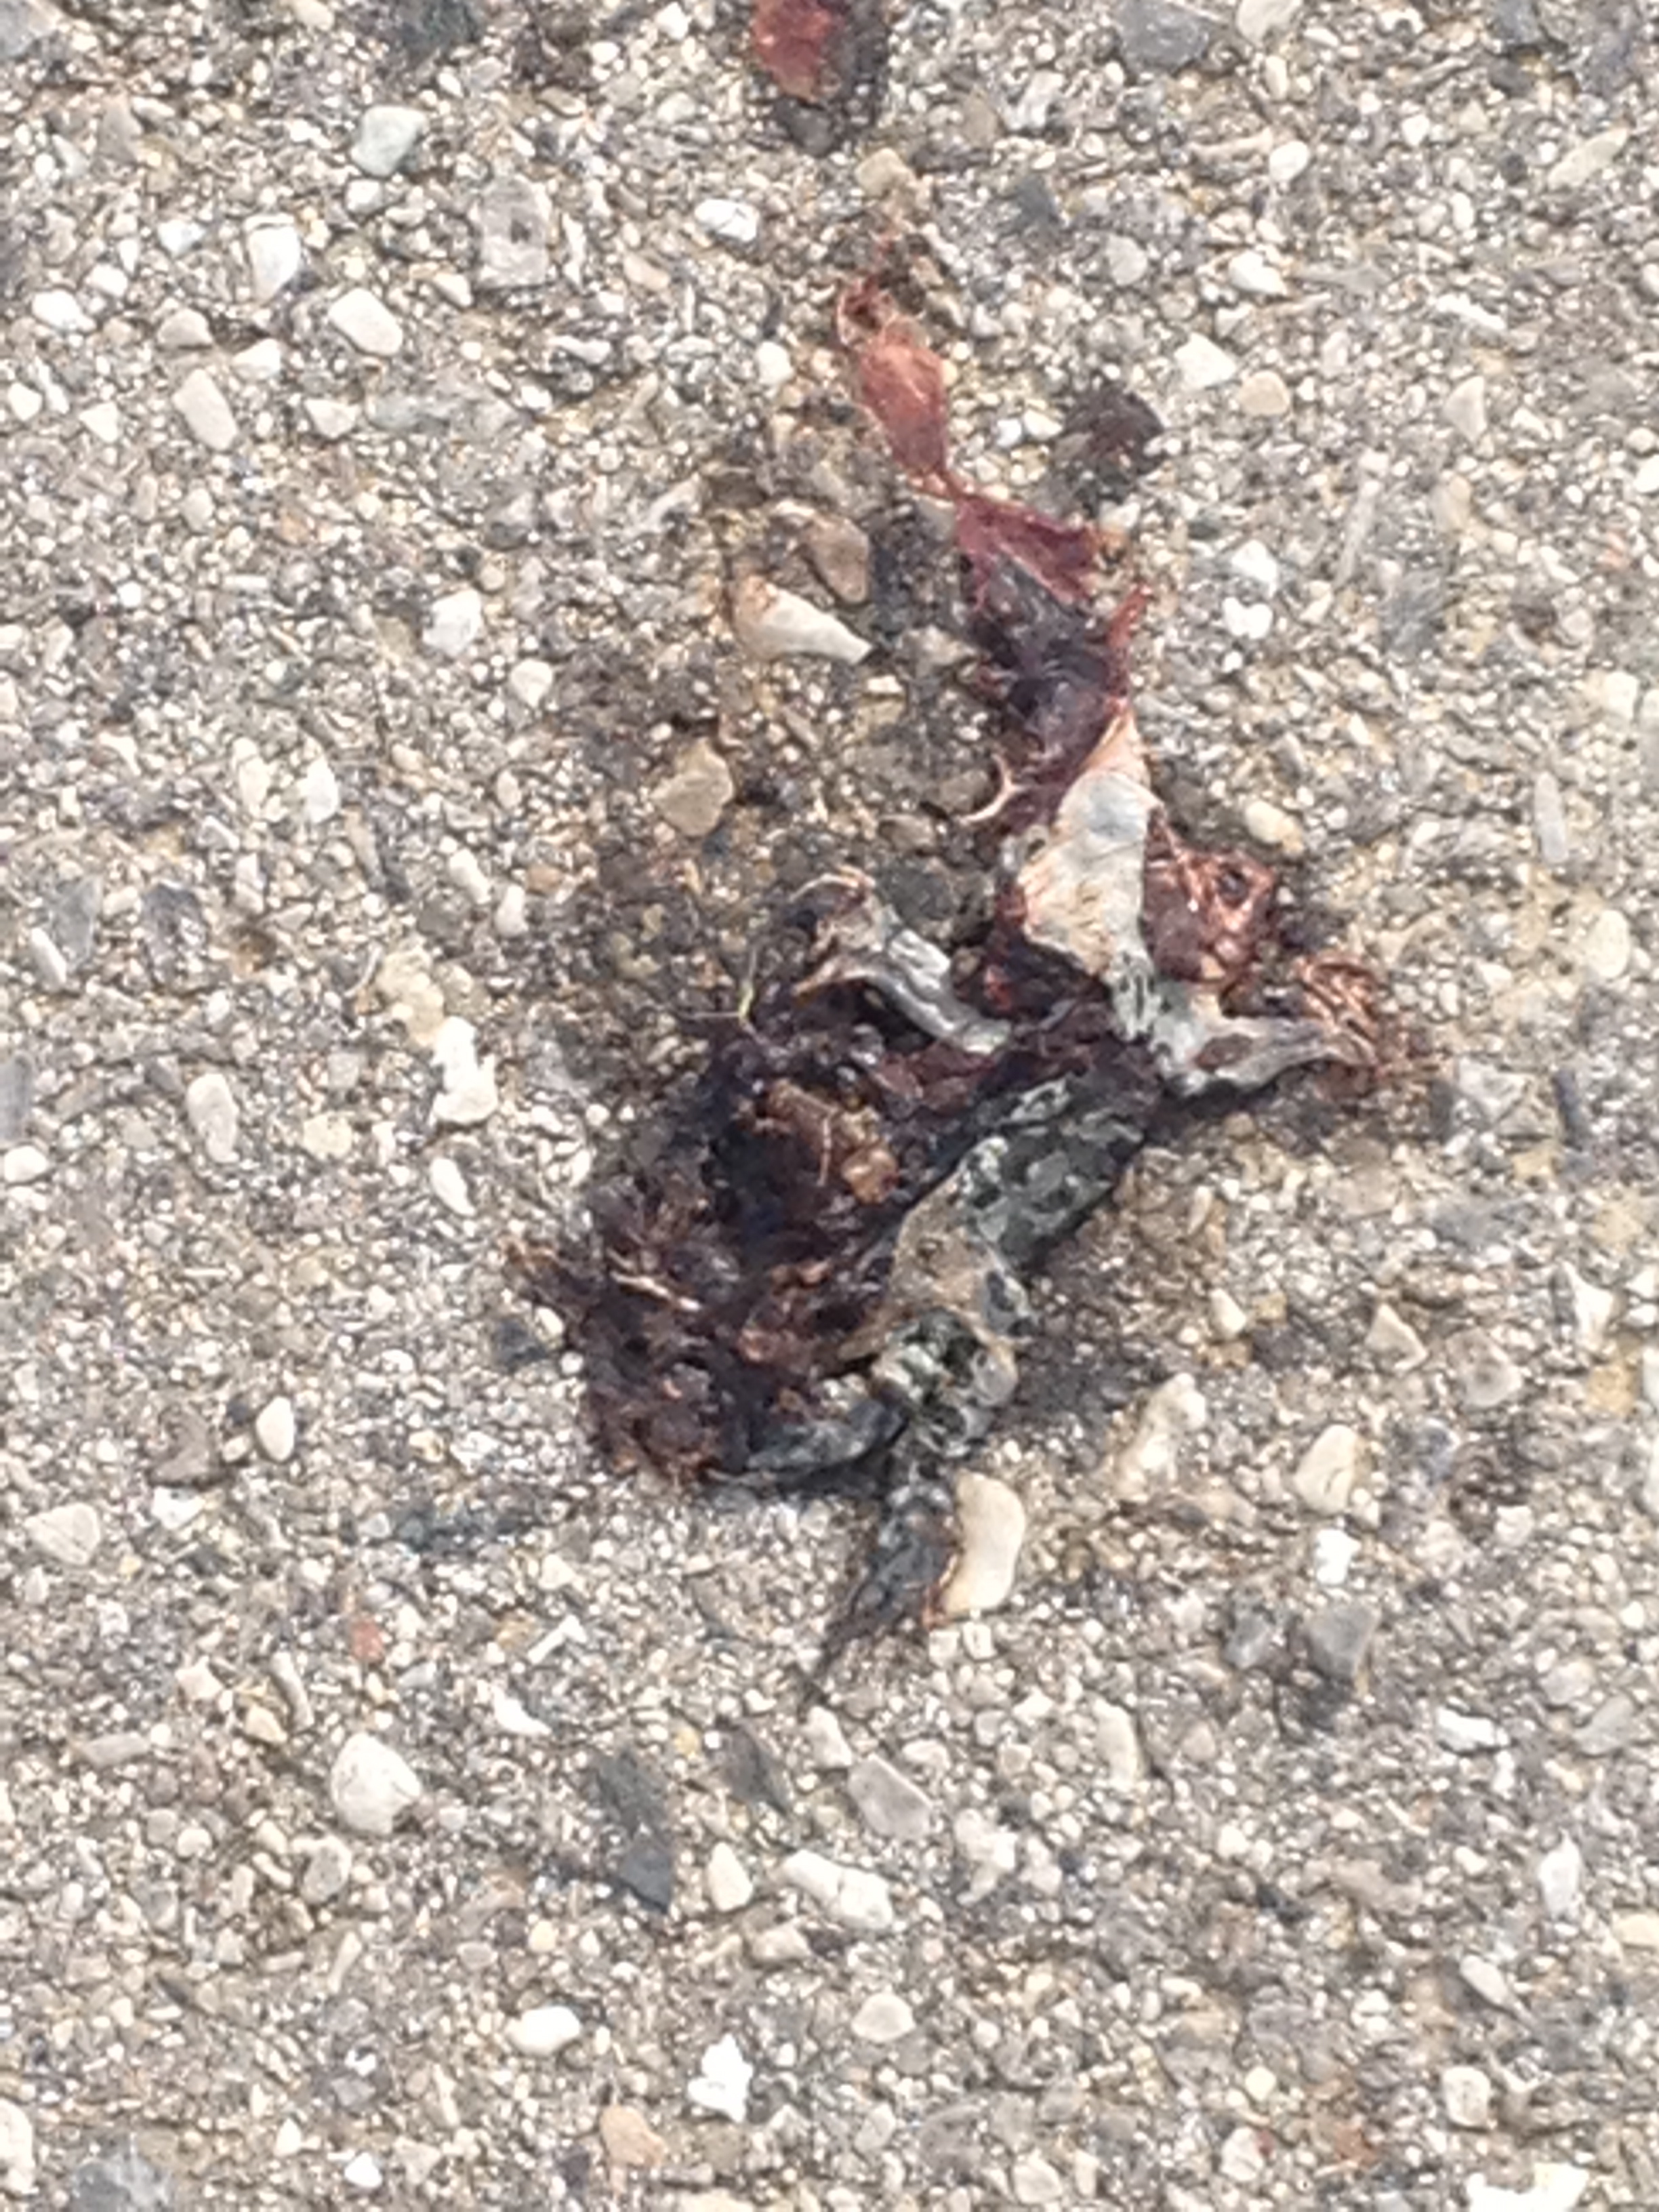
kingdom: Animalia
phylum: Chordata
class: Amphibia
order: Anura
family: Bufonidae
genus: Bufotes
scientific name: Bufotes viridis
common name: European green toad
